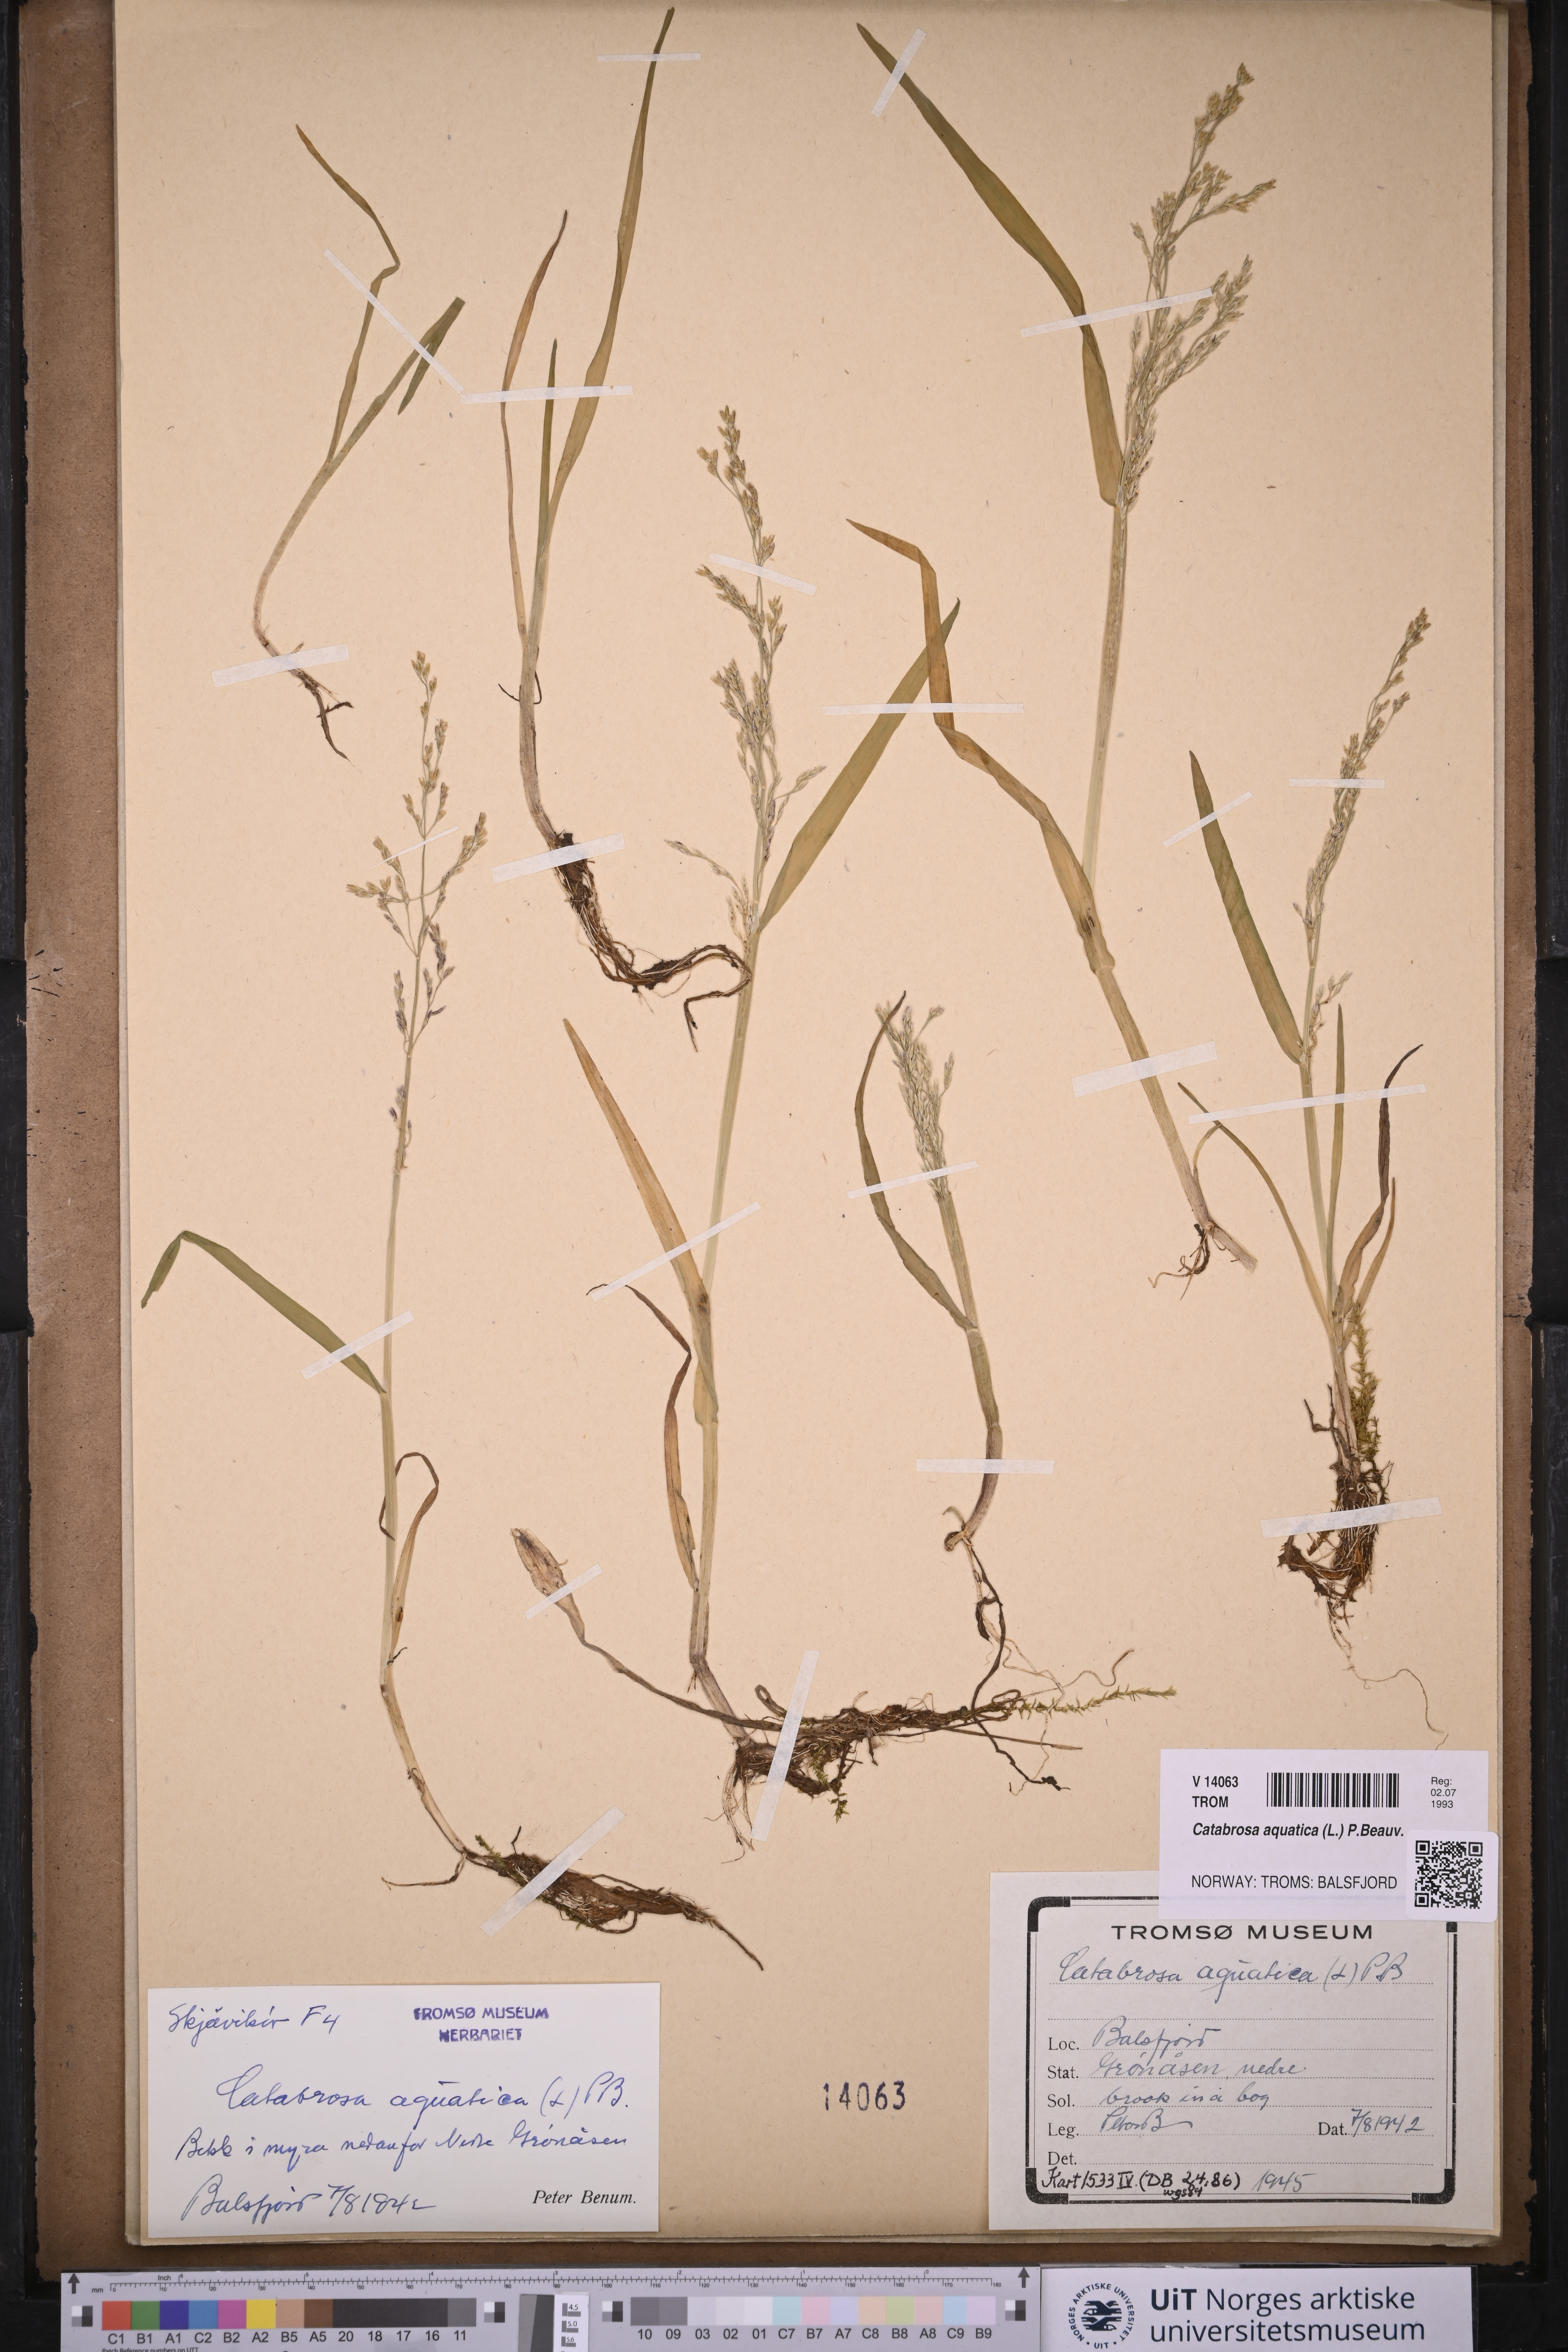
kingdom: Plantae
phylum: Tracheophyta
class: Liliopsida
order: Poales
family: Poaceae
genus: Catabrosa
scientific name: Catabrosa aquatica
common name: Whorl-grass
